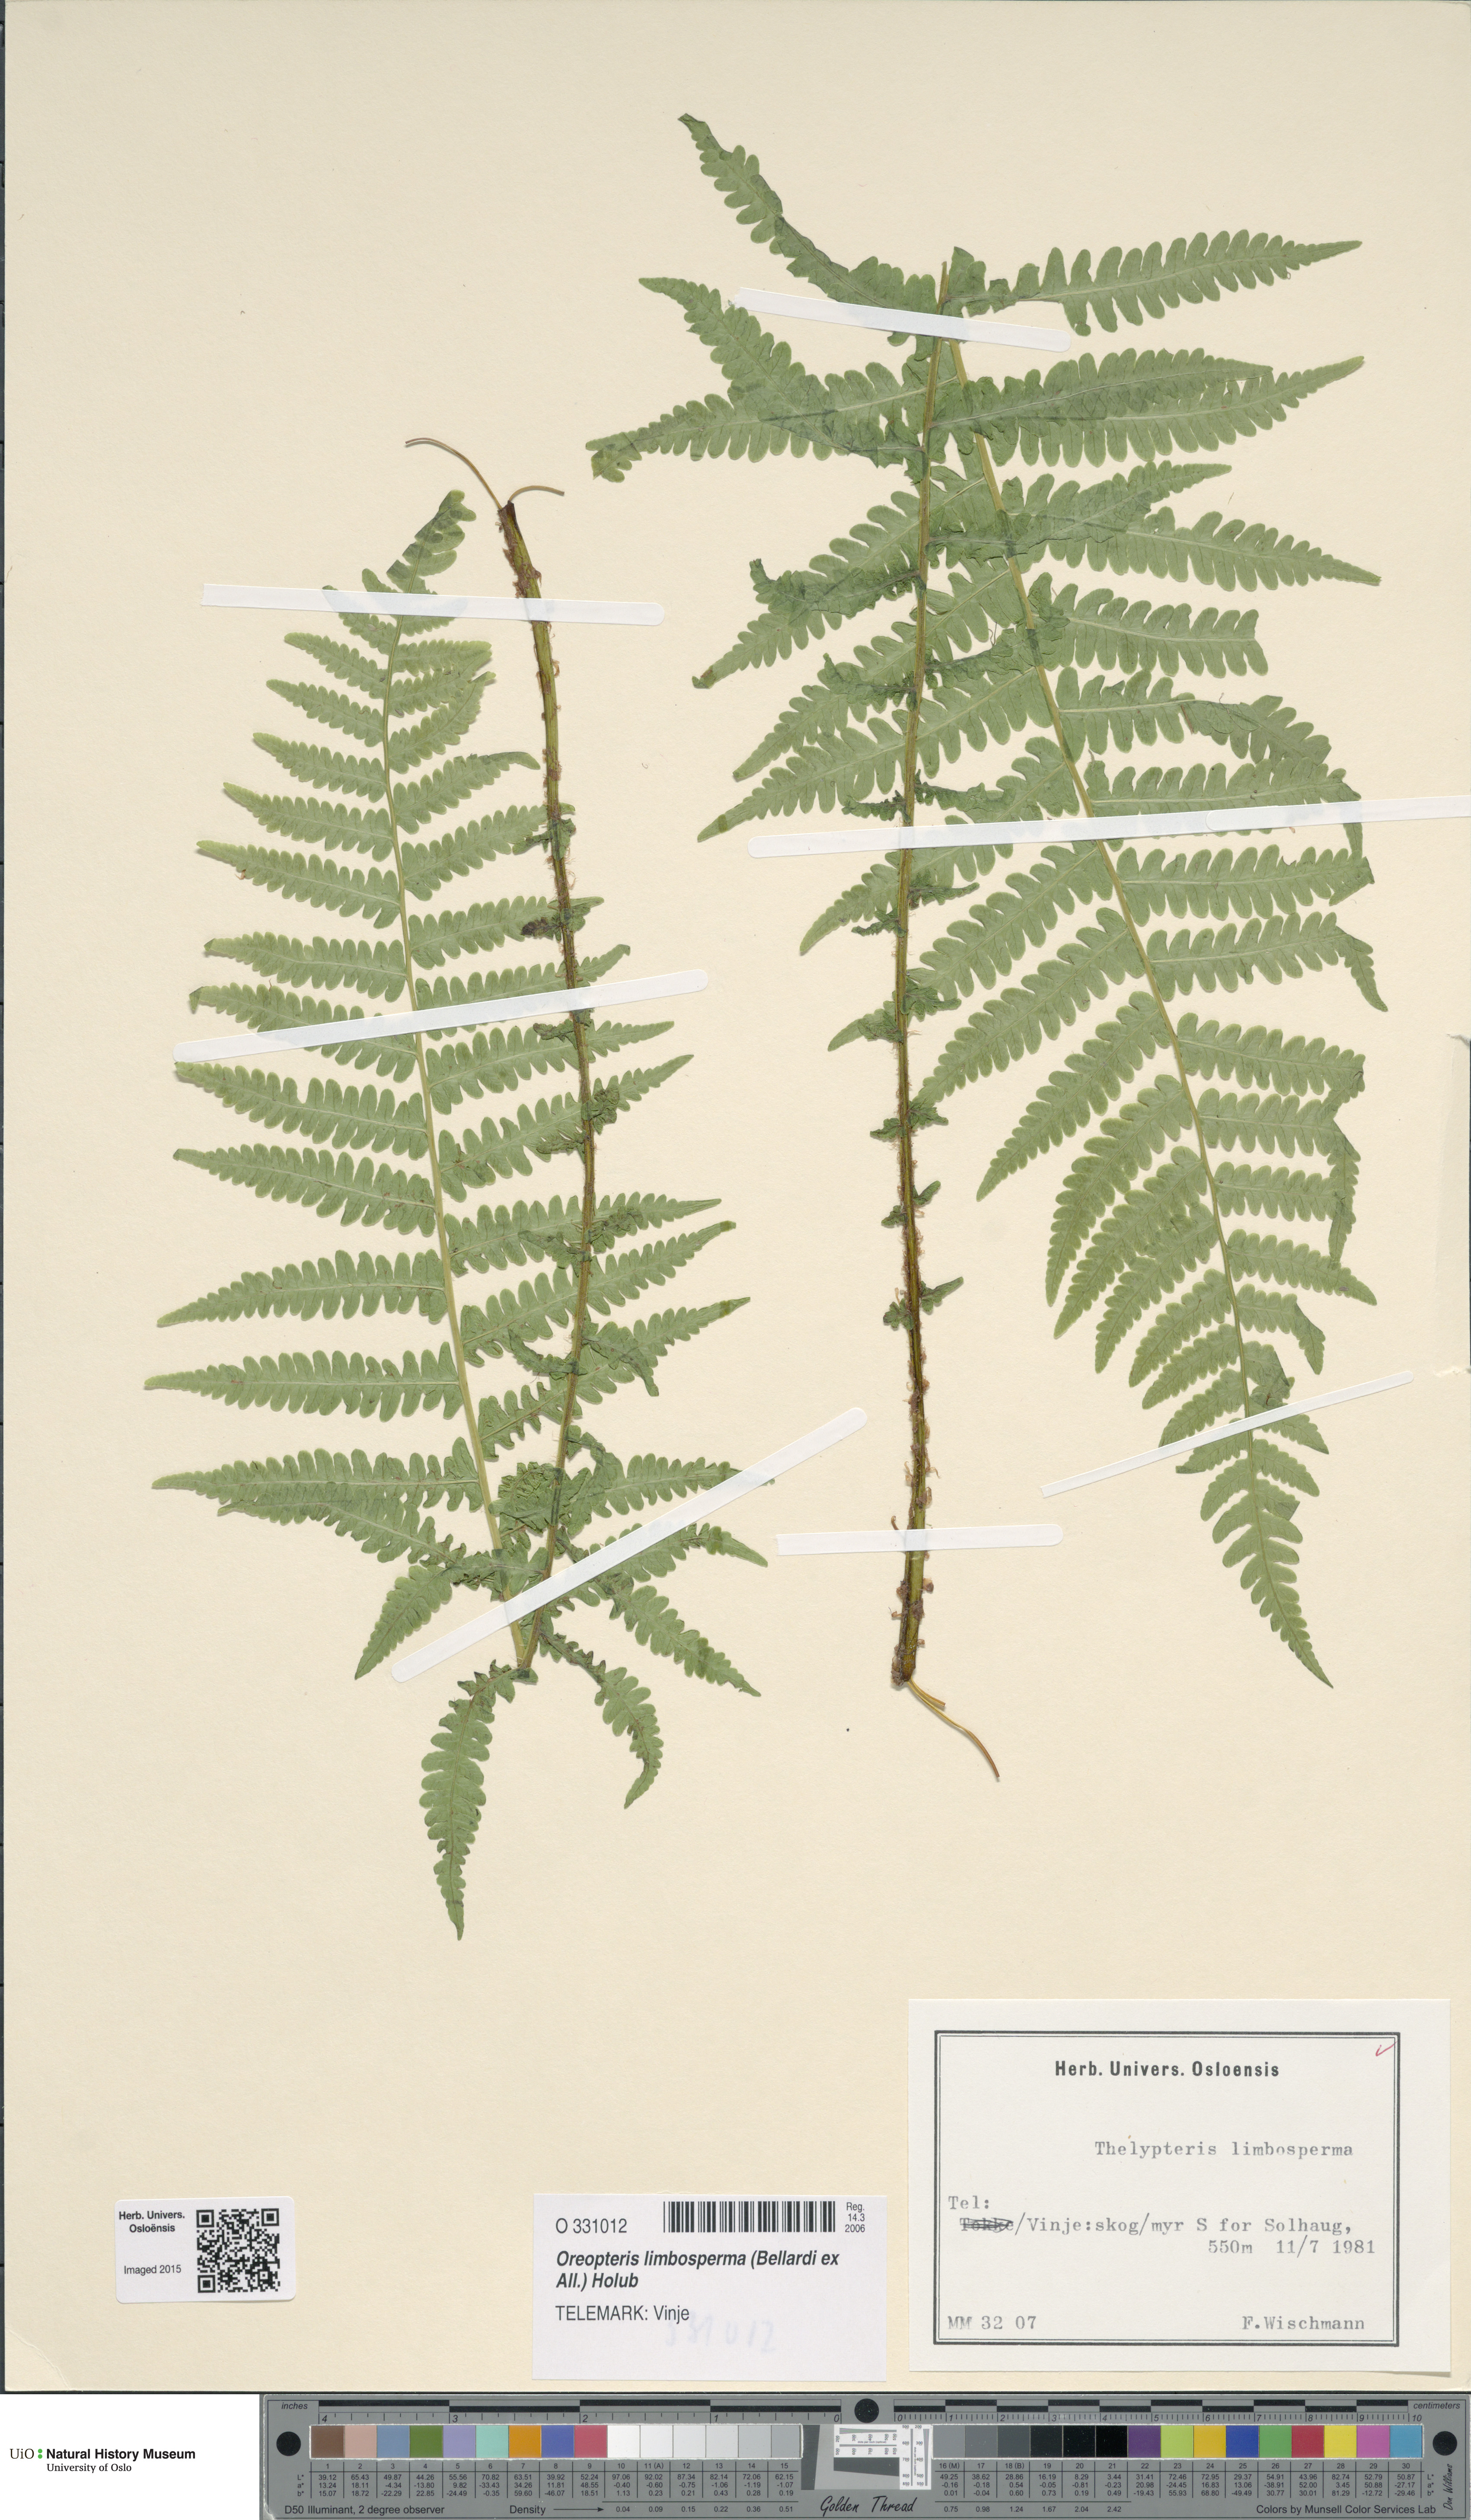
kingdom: Plantae
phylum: Tracheophyta
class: Polypodiopsida
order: Polypodiales
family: Thelypteridaceae
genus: Oreopteris
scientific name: Oreopteris limbosperma
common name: Lemon-scented fern
